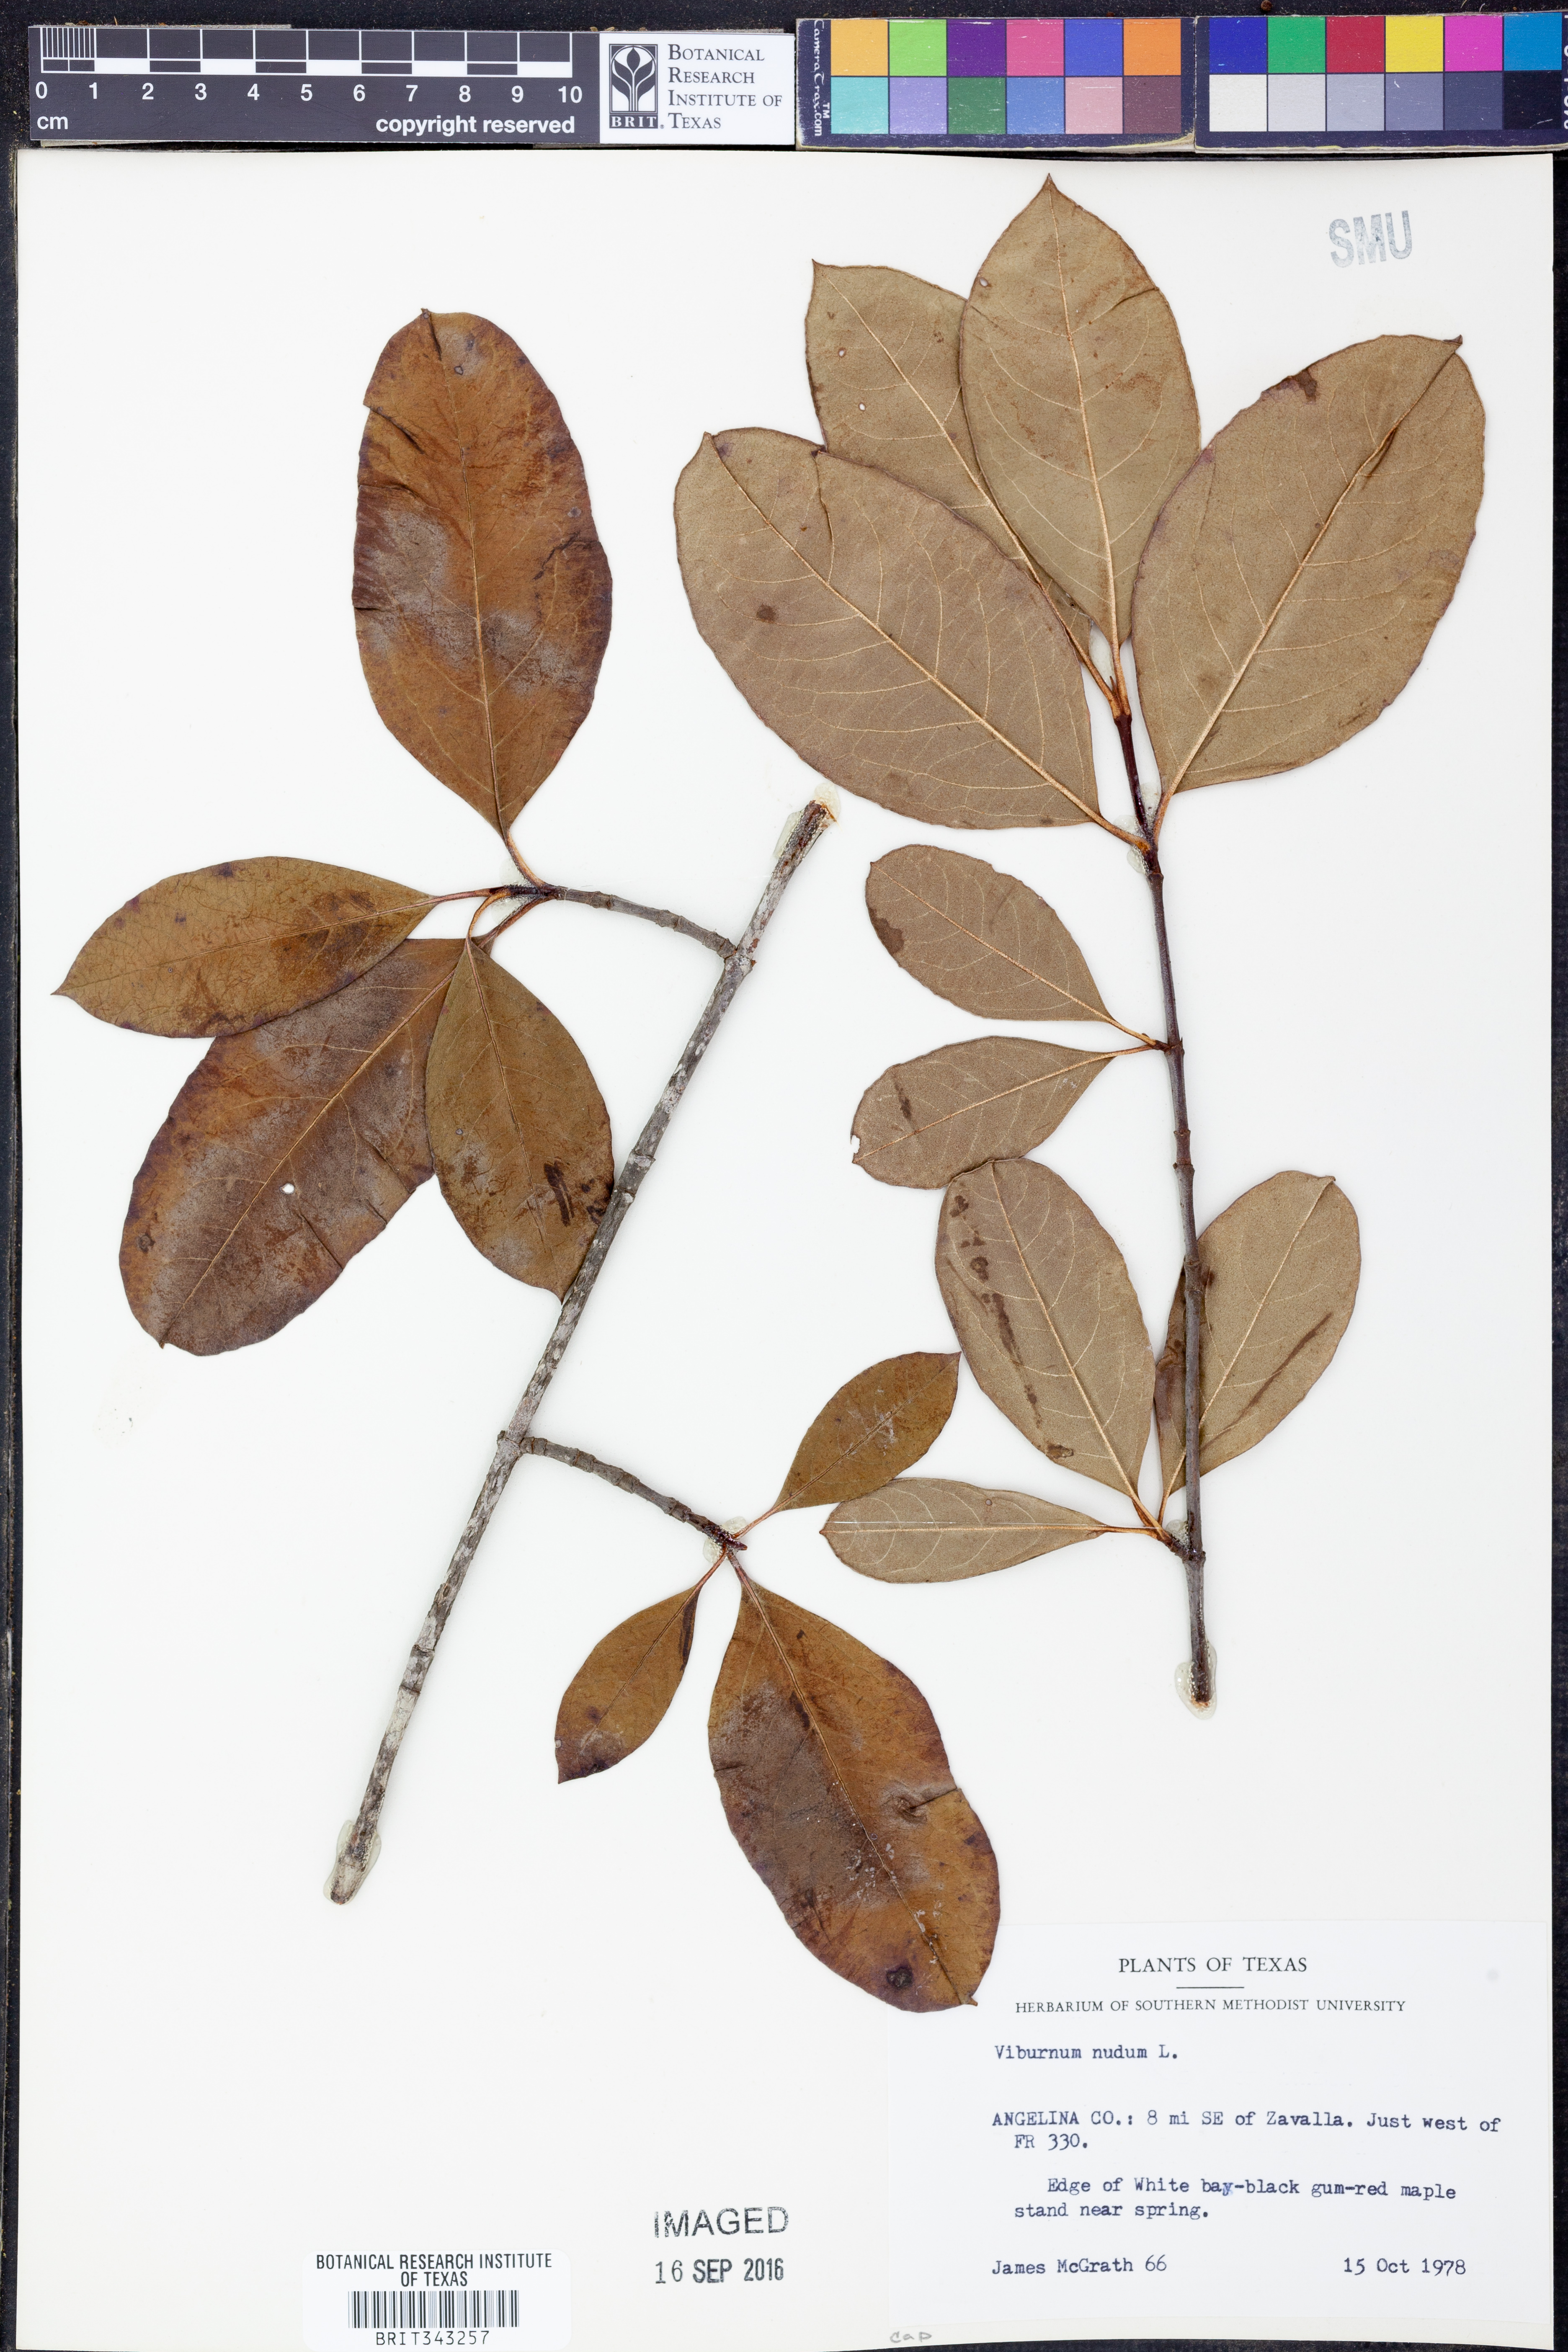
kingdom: Plantae
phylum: Tracheophyta
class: Magnoliopsida
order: Dipsacales
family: Viburnaceae
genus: Viburnum
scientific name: Viburnum nudum
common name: Possum haw
